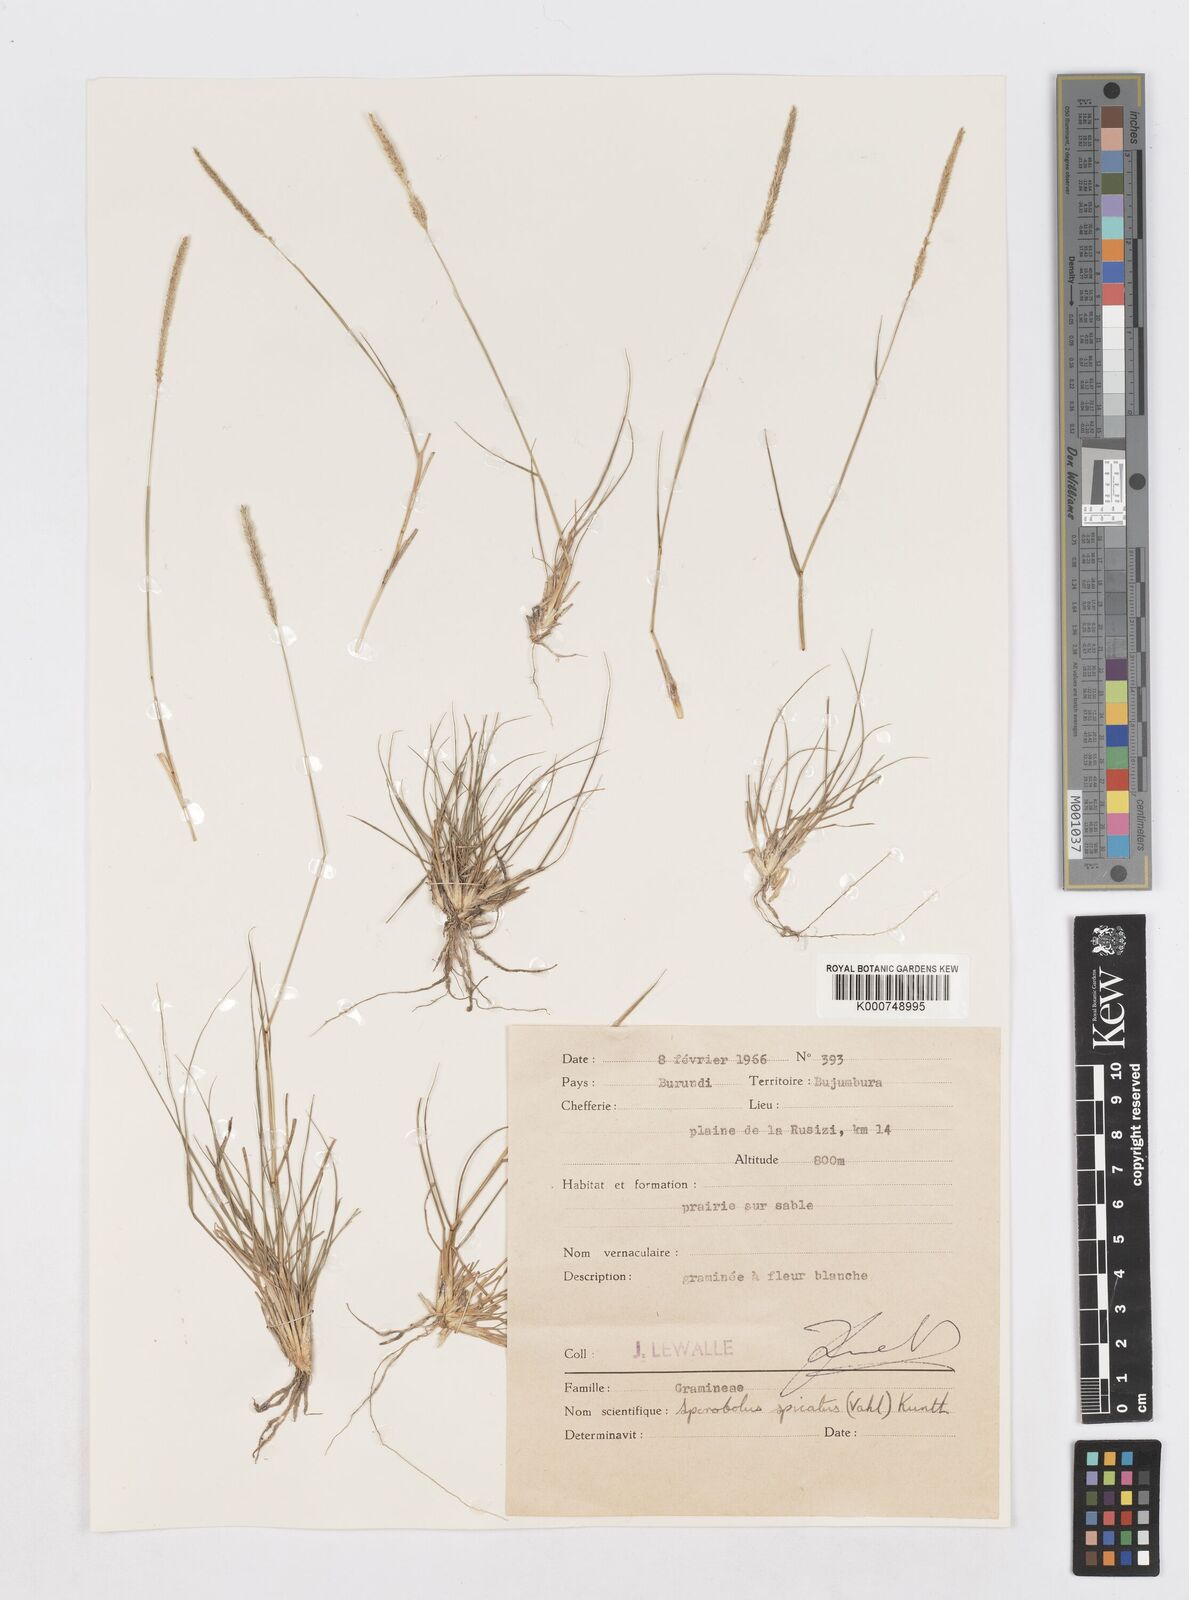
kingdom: Plantae
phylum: Tracheophyta
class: Liliopsida
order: Poales
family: Poaceae
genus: Sporobolus
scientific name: Sporobolus spicatus
